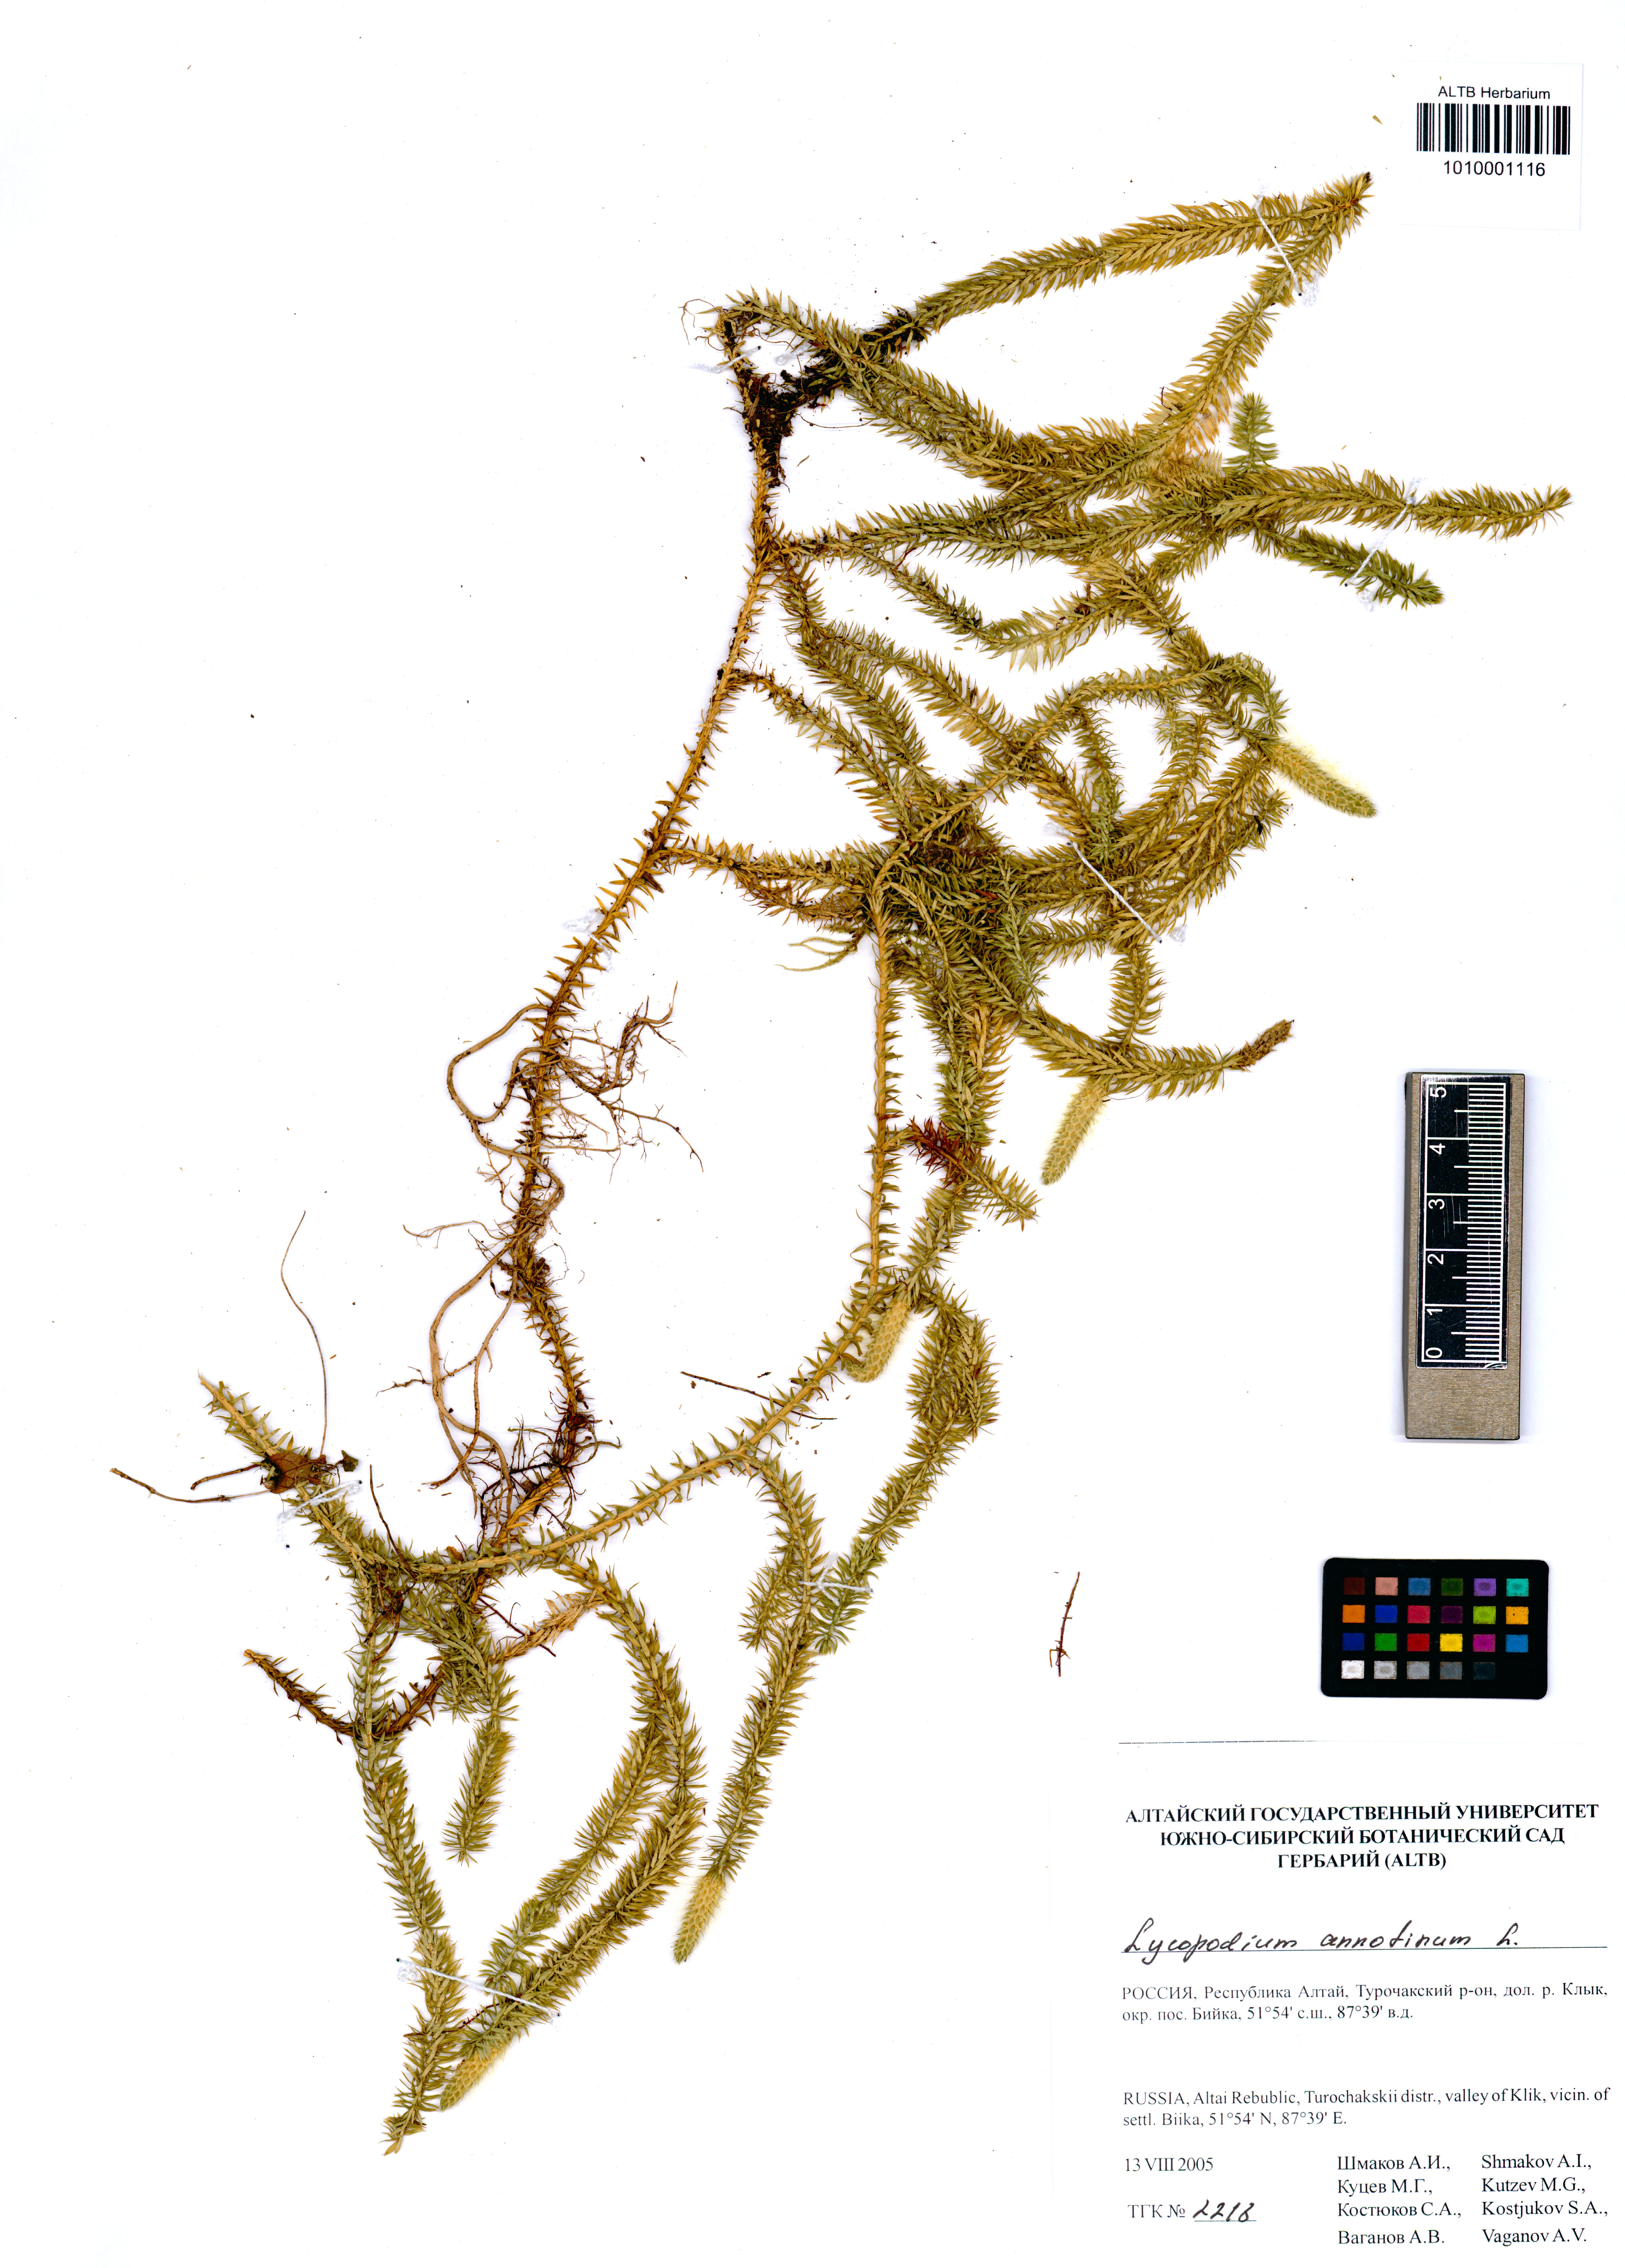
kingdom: Plantae
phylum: Tracheophyta
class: Lycopodiopsida
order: Lycopodiales
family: Lycopodiaceae
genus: Spinulum
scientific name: Spinulum annotinum
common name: Interrupted club-moss
